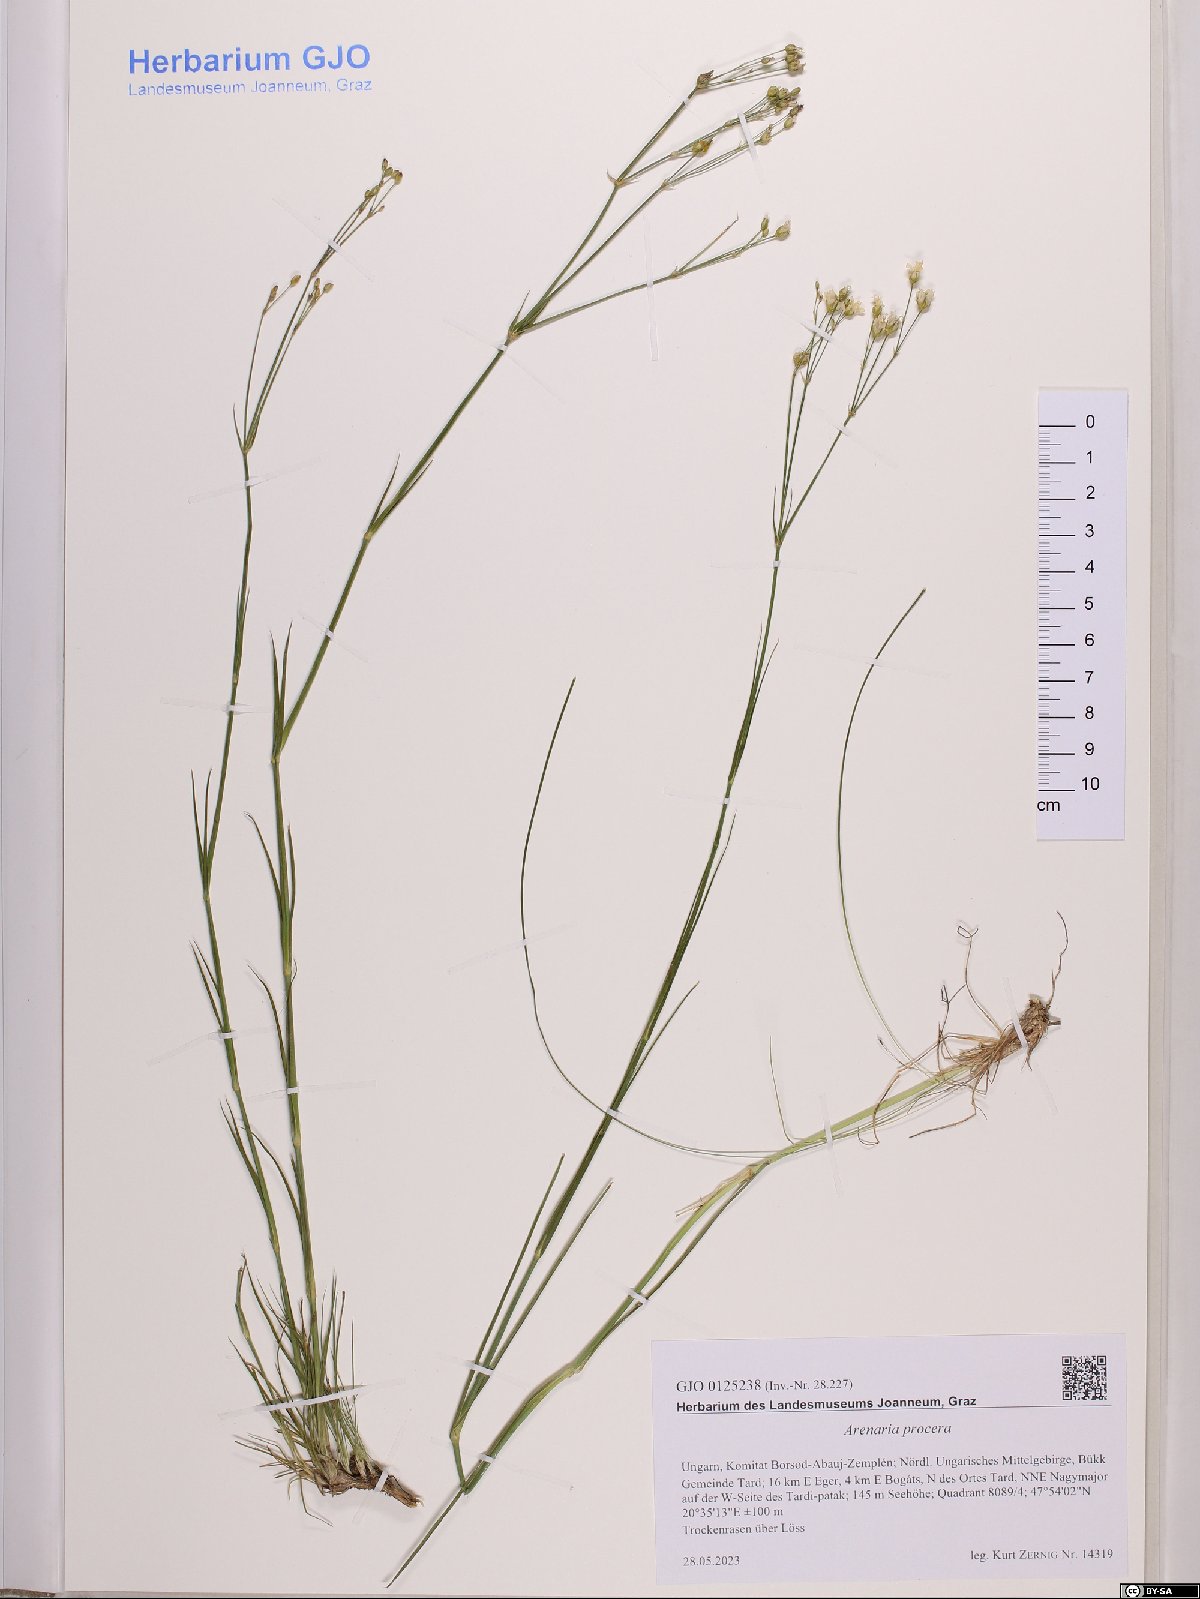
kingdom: Plantae
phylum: Tracheophyta
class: Magnoliopsida
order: Caryophyllales
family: Caryophyllaceae
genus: Eremogone
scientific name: Eremogone saxatilis
